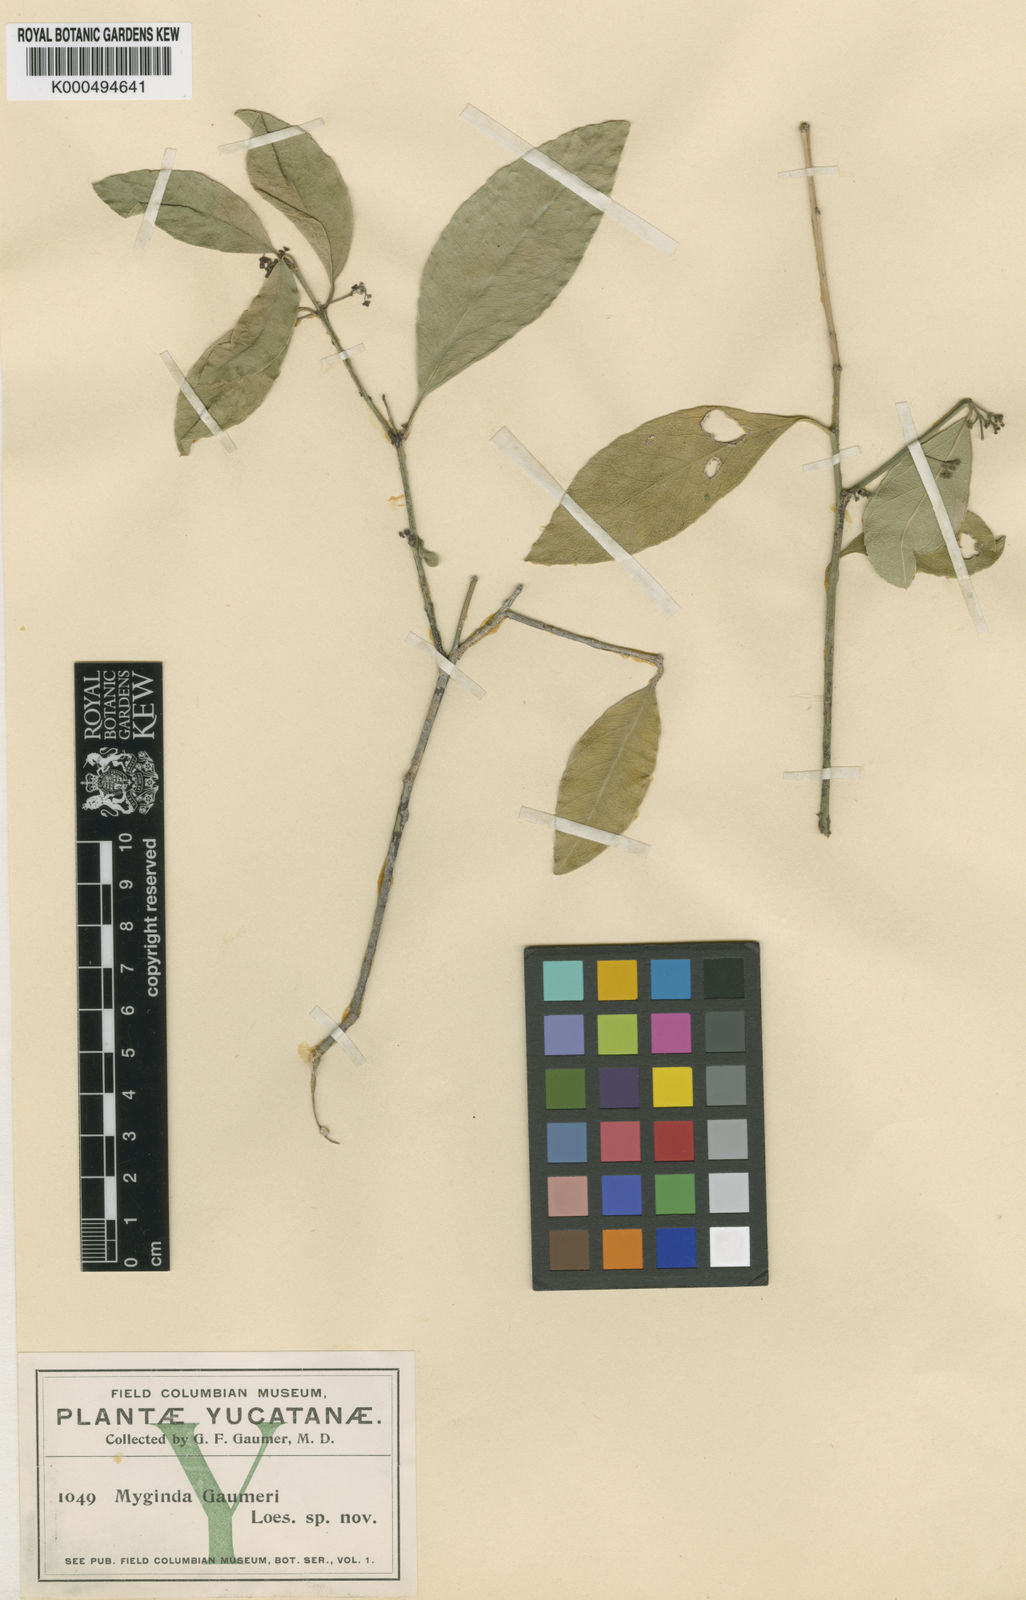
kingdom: Plantae
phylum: Tracheophyta
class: Magnoliopsida
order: Celastrales
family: Celastraceae
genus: Crossopetalum
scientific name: Crossopetalum gaumeri
